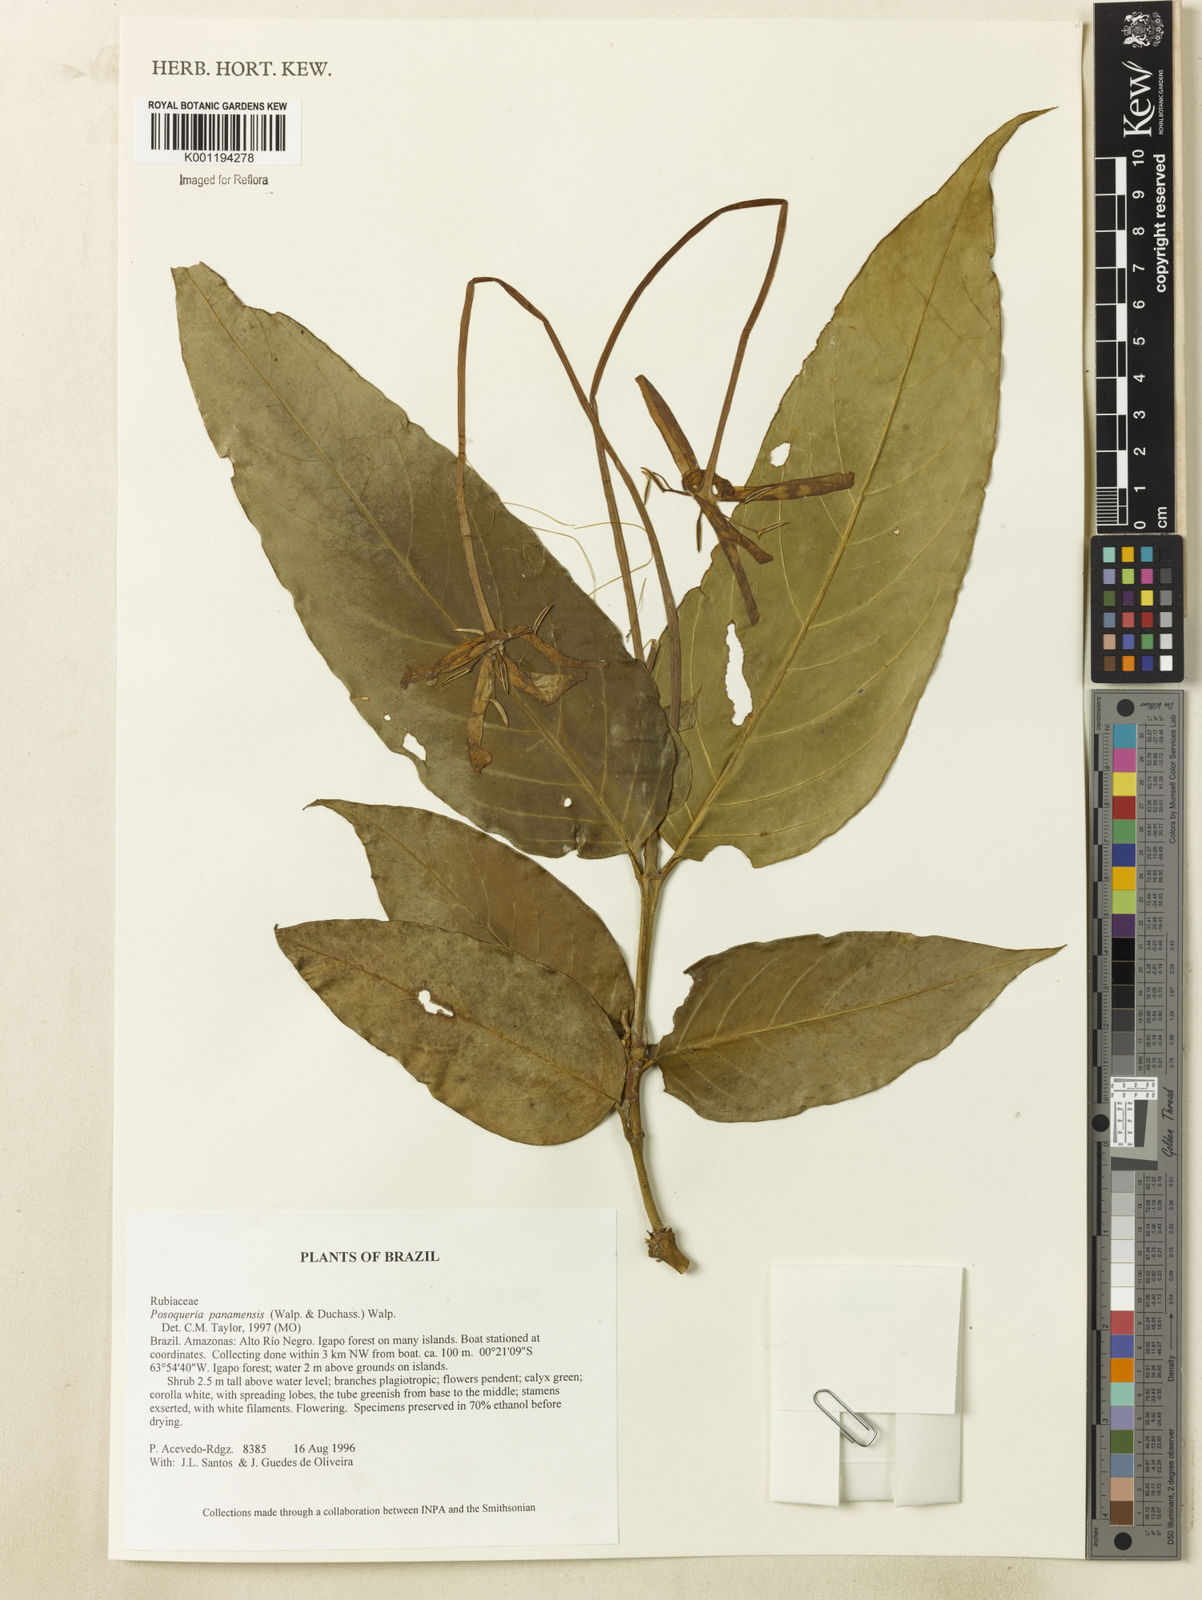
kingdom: Plantae
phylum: Tracheophyta
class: Magnoliopsida
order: Gentianales
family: Rubiaceae
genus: Posoqueria
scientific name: Posoqueria latifolia
